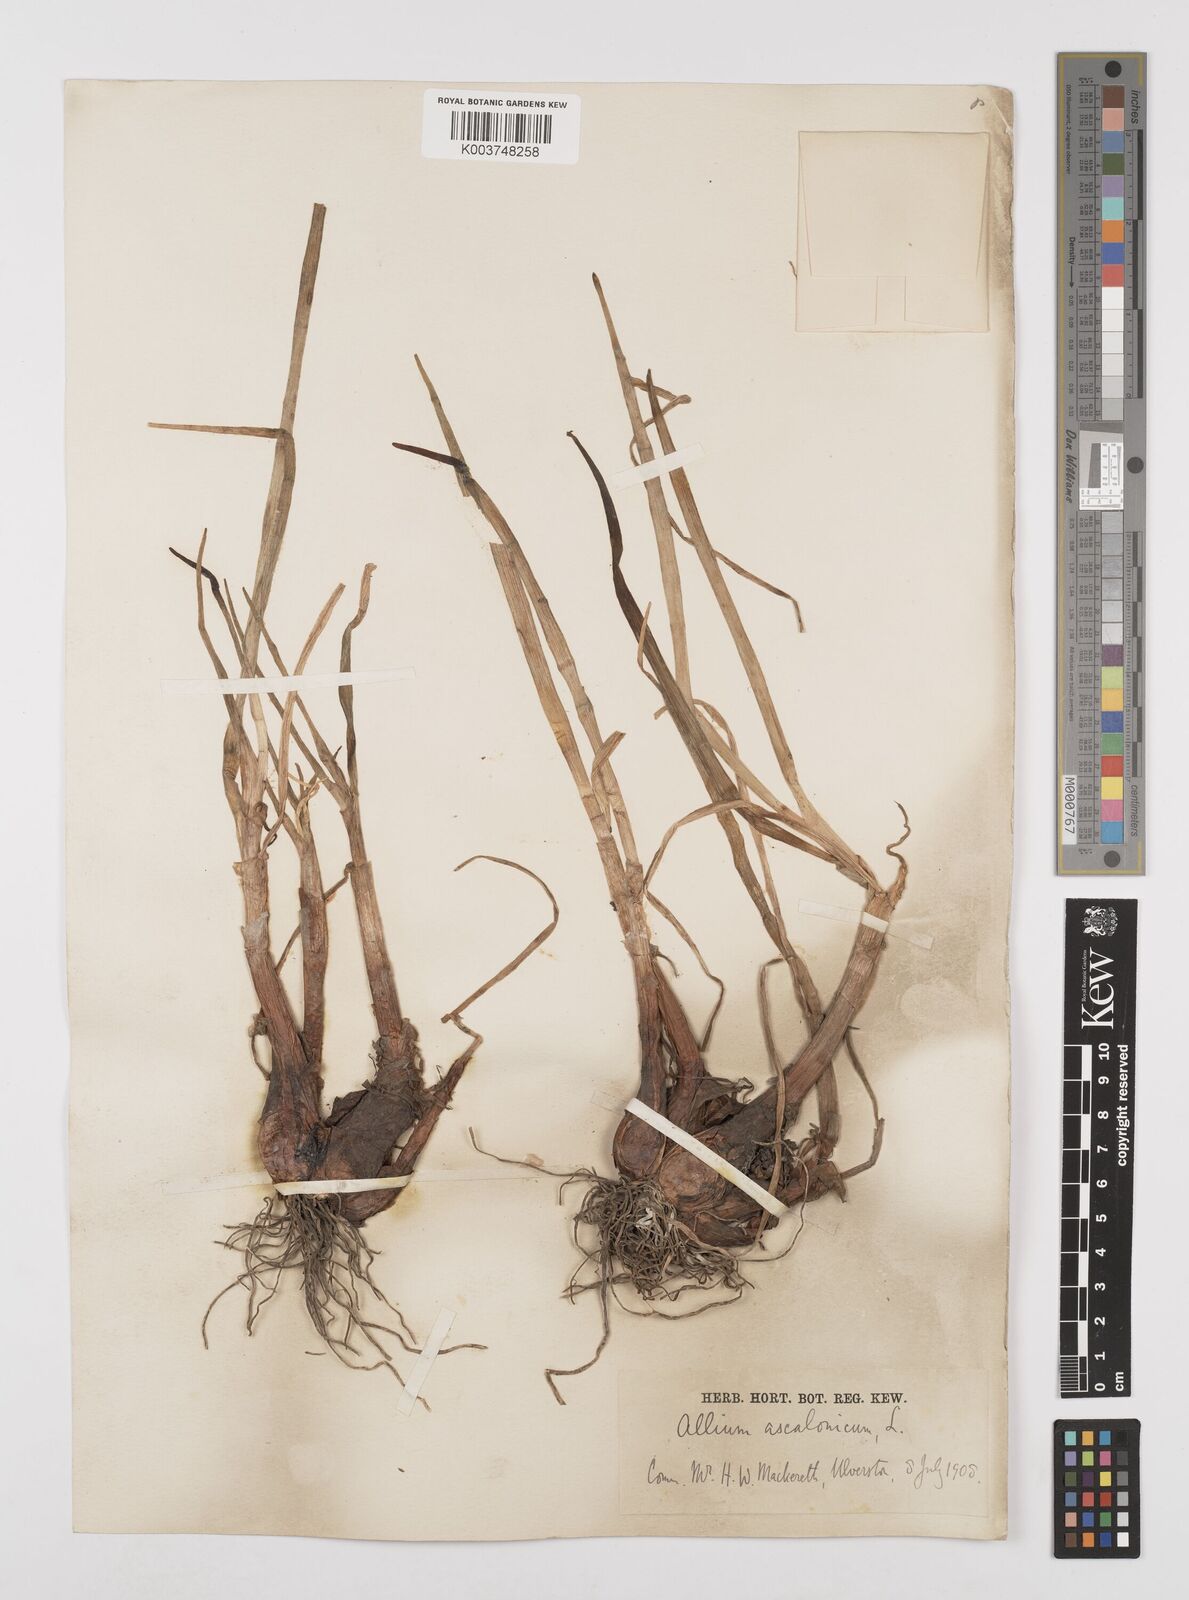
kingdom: Plantae
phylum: Tracheophyta
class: Liliopsida
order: Asparagales
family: Amaryllidaceae
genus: Allium
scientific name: Allium ascalonicum
